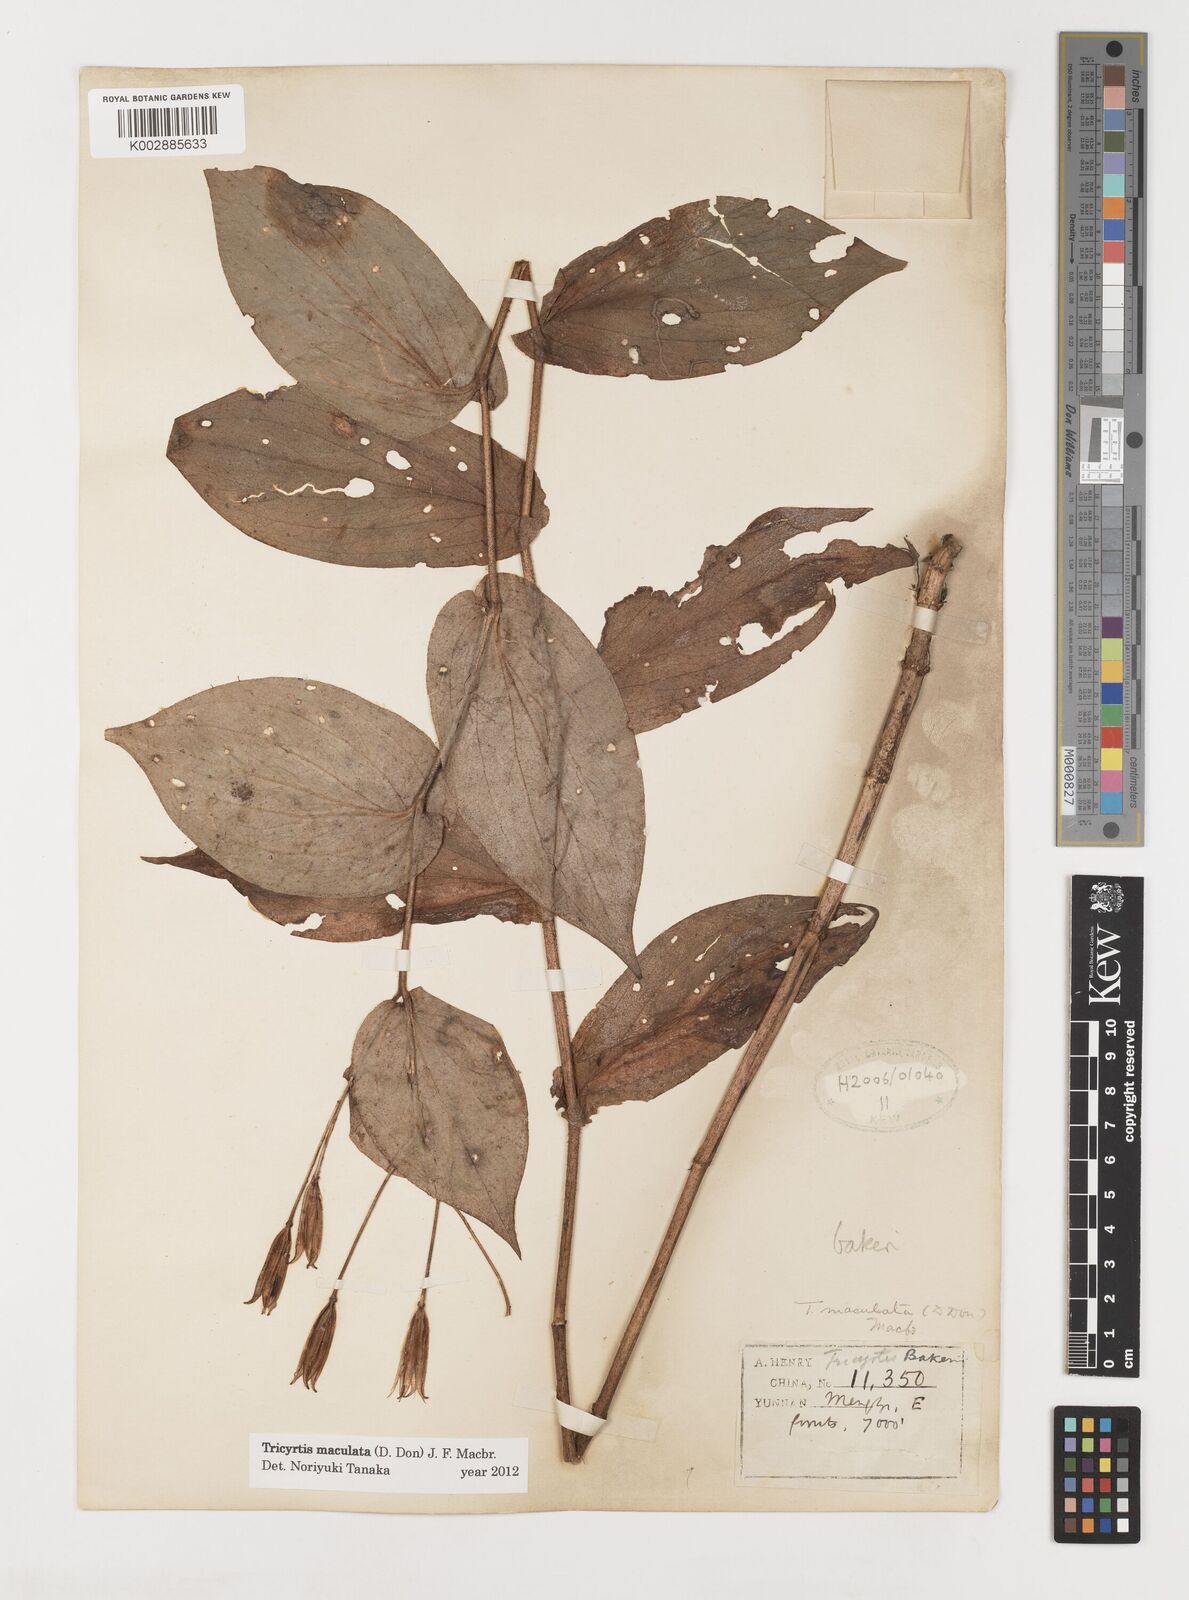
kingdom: Plantae
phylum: Tracheophyta
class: Liliopsida
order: Liliales
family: Liliaceae
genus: Tricyrtis
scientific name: Tricyrtis maculata
